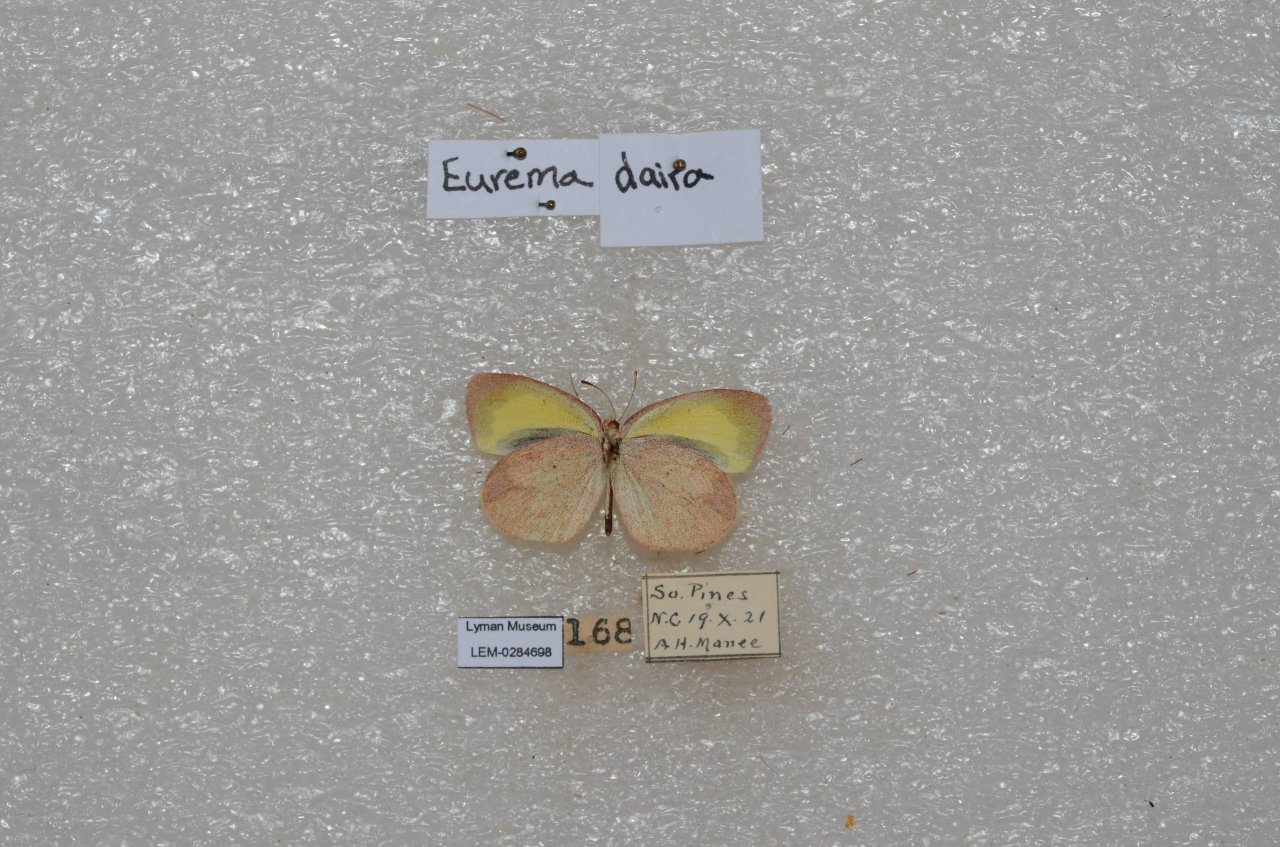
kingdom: Animalia
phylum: Arthropoda
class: Insecta
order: Lepidoptera
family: Pieridae
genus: Eurema
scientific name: Eurema daira
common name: Barred Yellow
